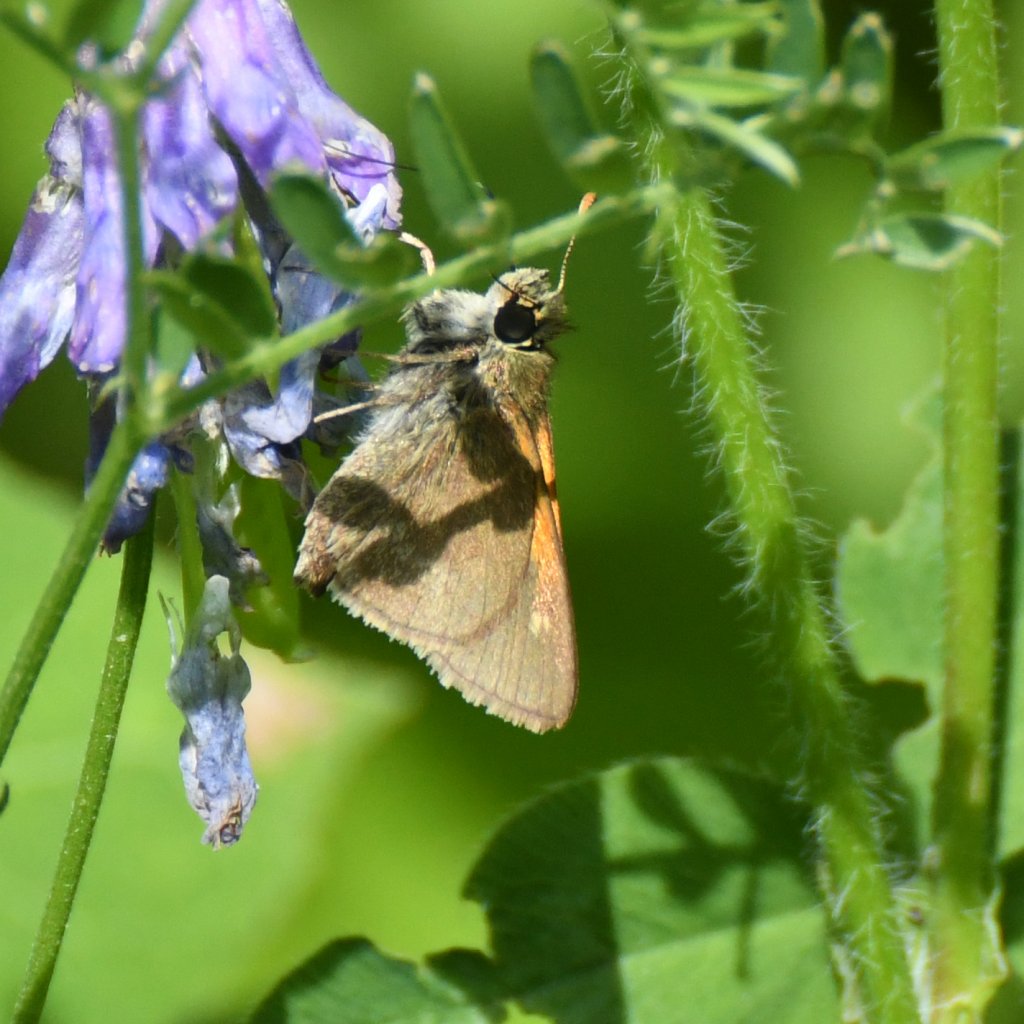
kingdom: Animalia
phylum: Arthropoda
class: Insecta
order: Lepidoptera
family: Hesperiidae
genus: Polites
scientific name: Polites themistocles
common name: Tawny-edged Skipper
